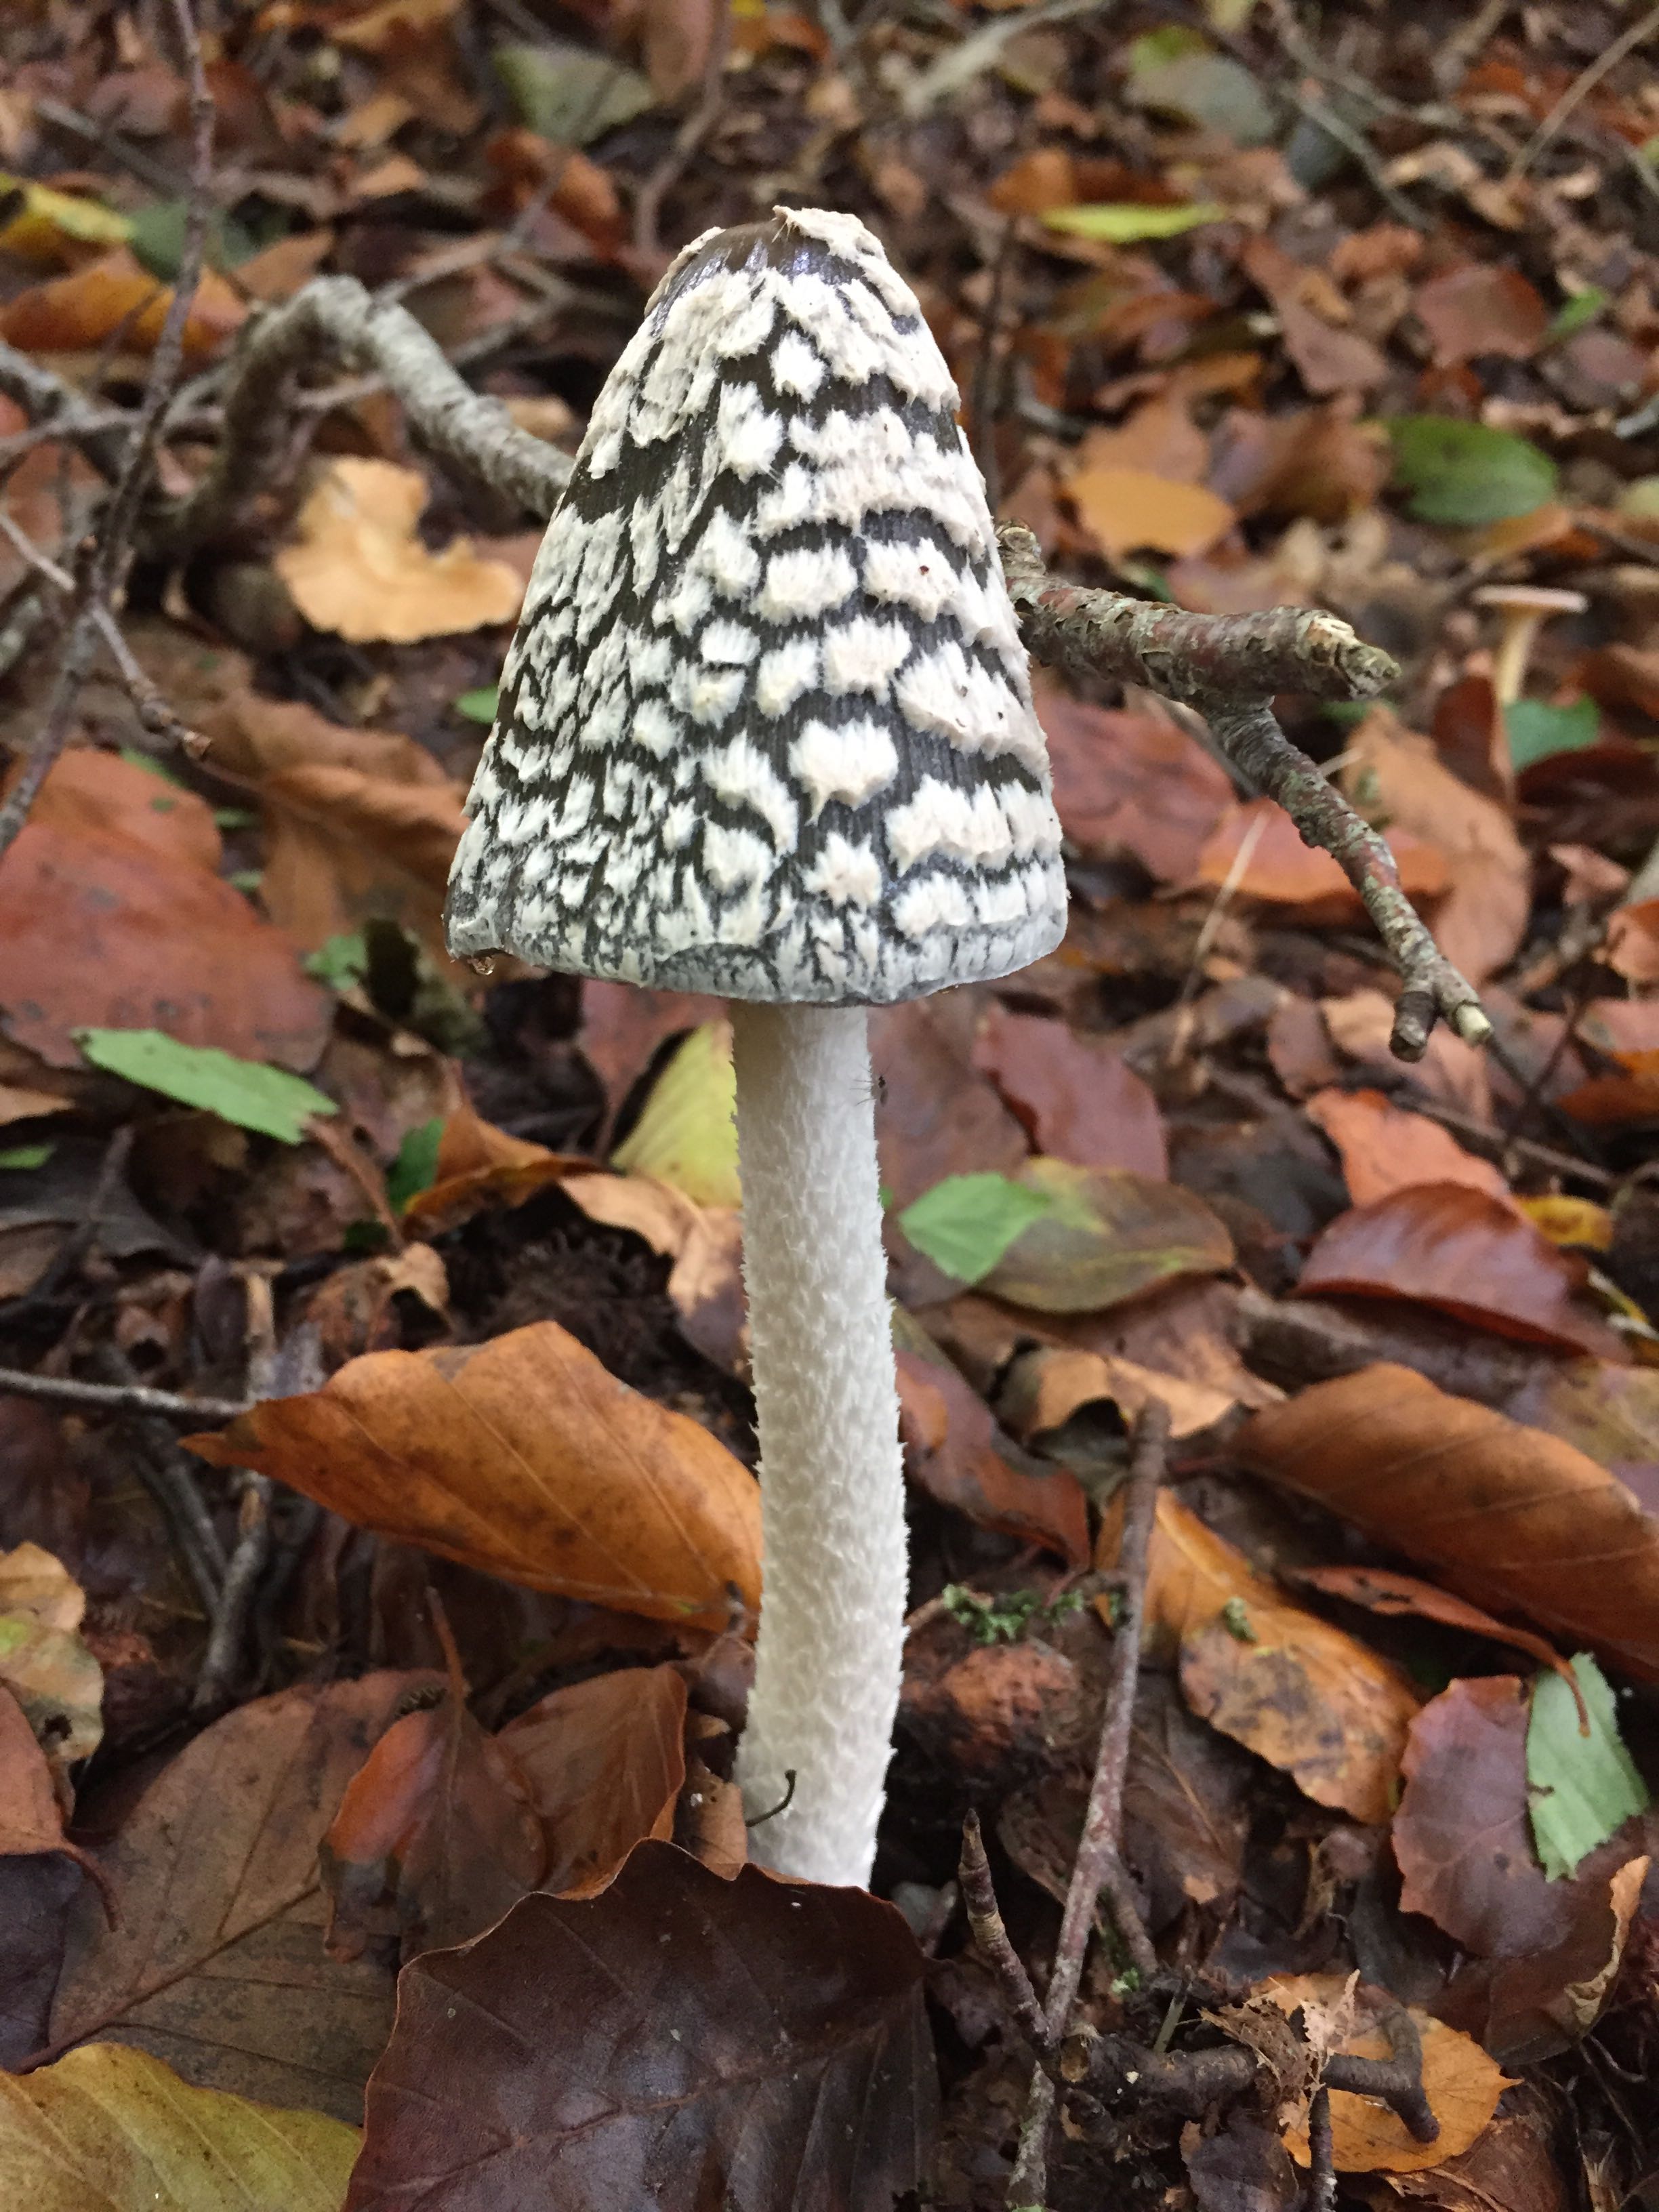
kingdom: Fungi
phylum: Basidiomycota
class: Agaricomycetes
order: Agaricales
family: Psathyrellaceae
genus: Coprinopsis
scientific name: Coprinopsis picacea
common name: skade-blækhat
